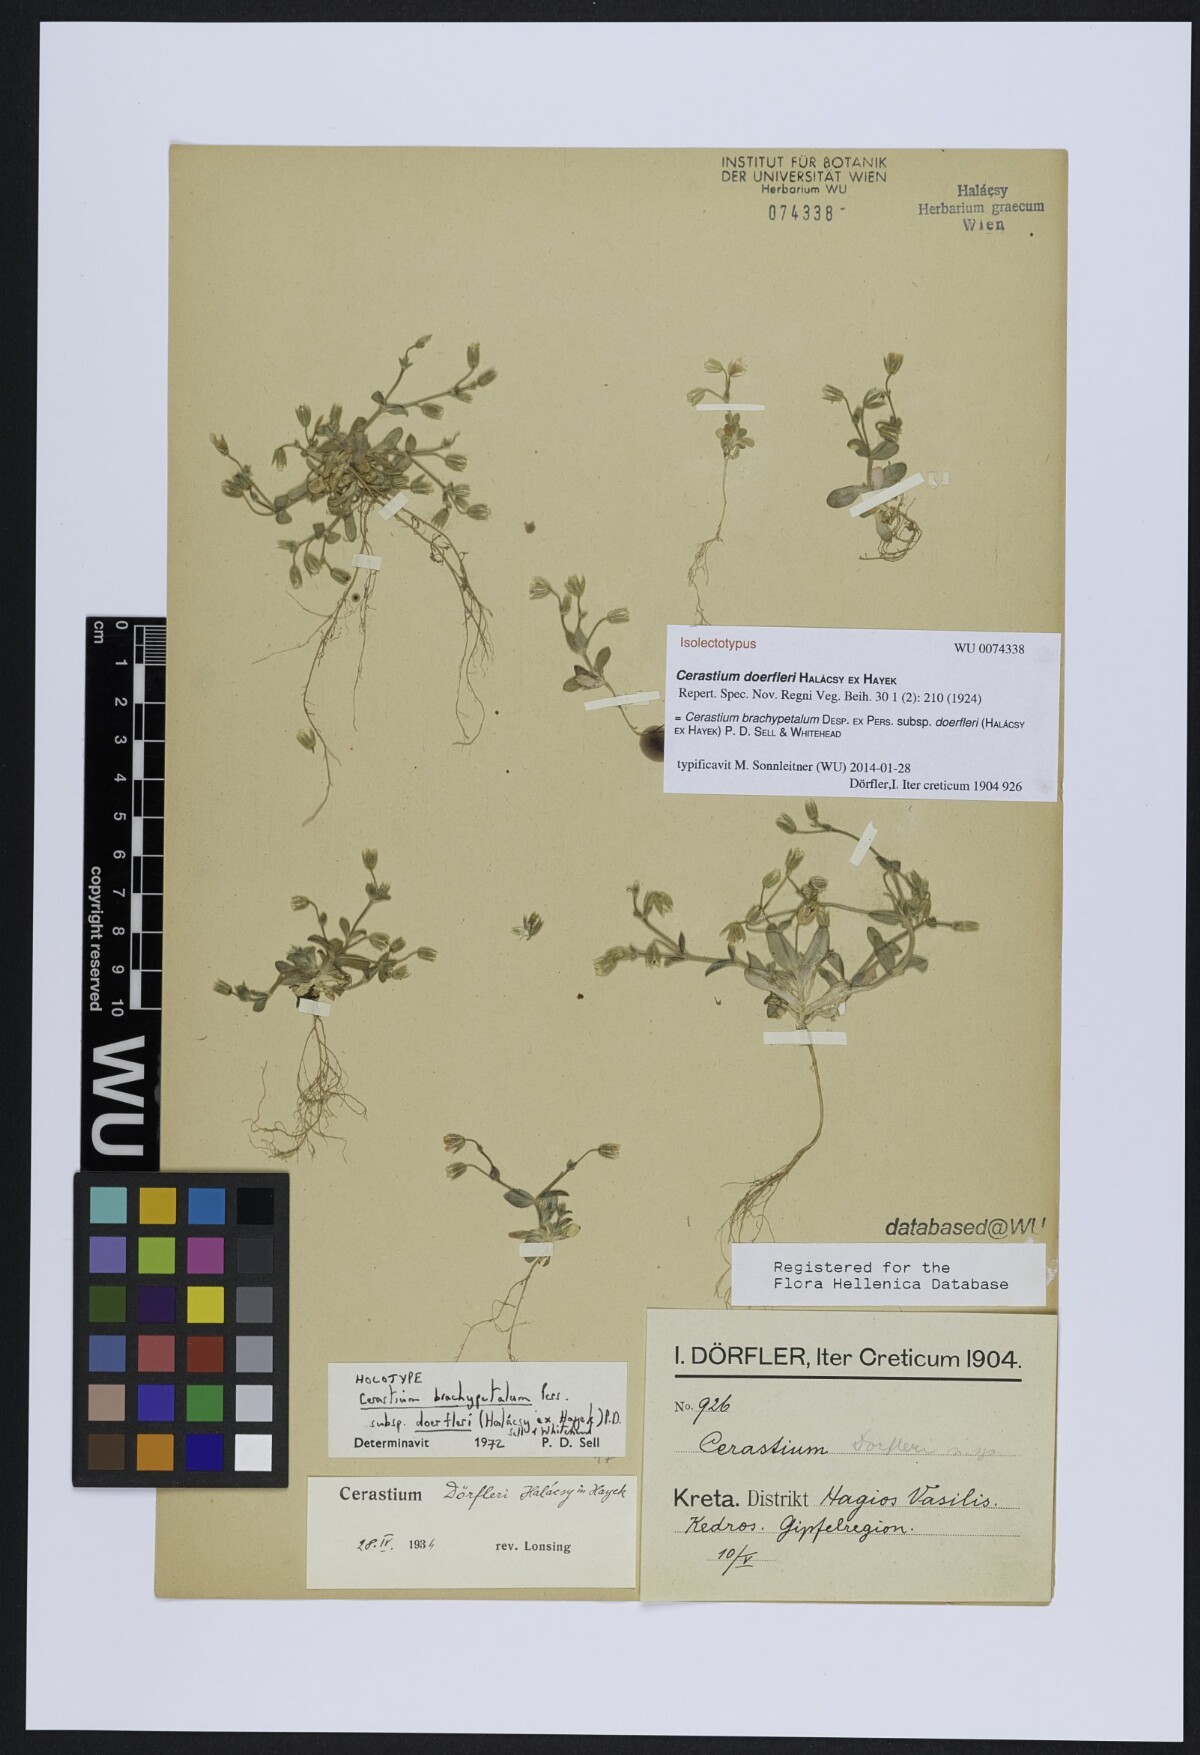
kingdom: Plantae
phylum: Tracheophyta
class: Magnoliopsida
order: Caryophyllales
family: Caryophyllaceae
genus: Cerastium
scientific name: Cerastium brachypetalum
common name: Grey mouse-ear
